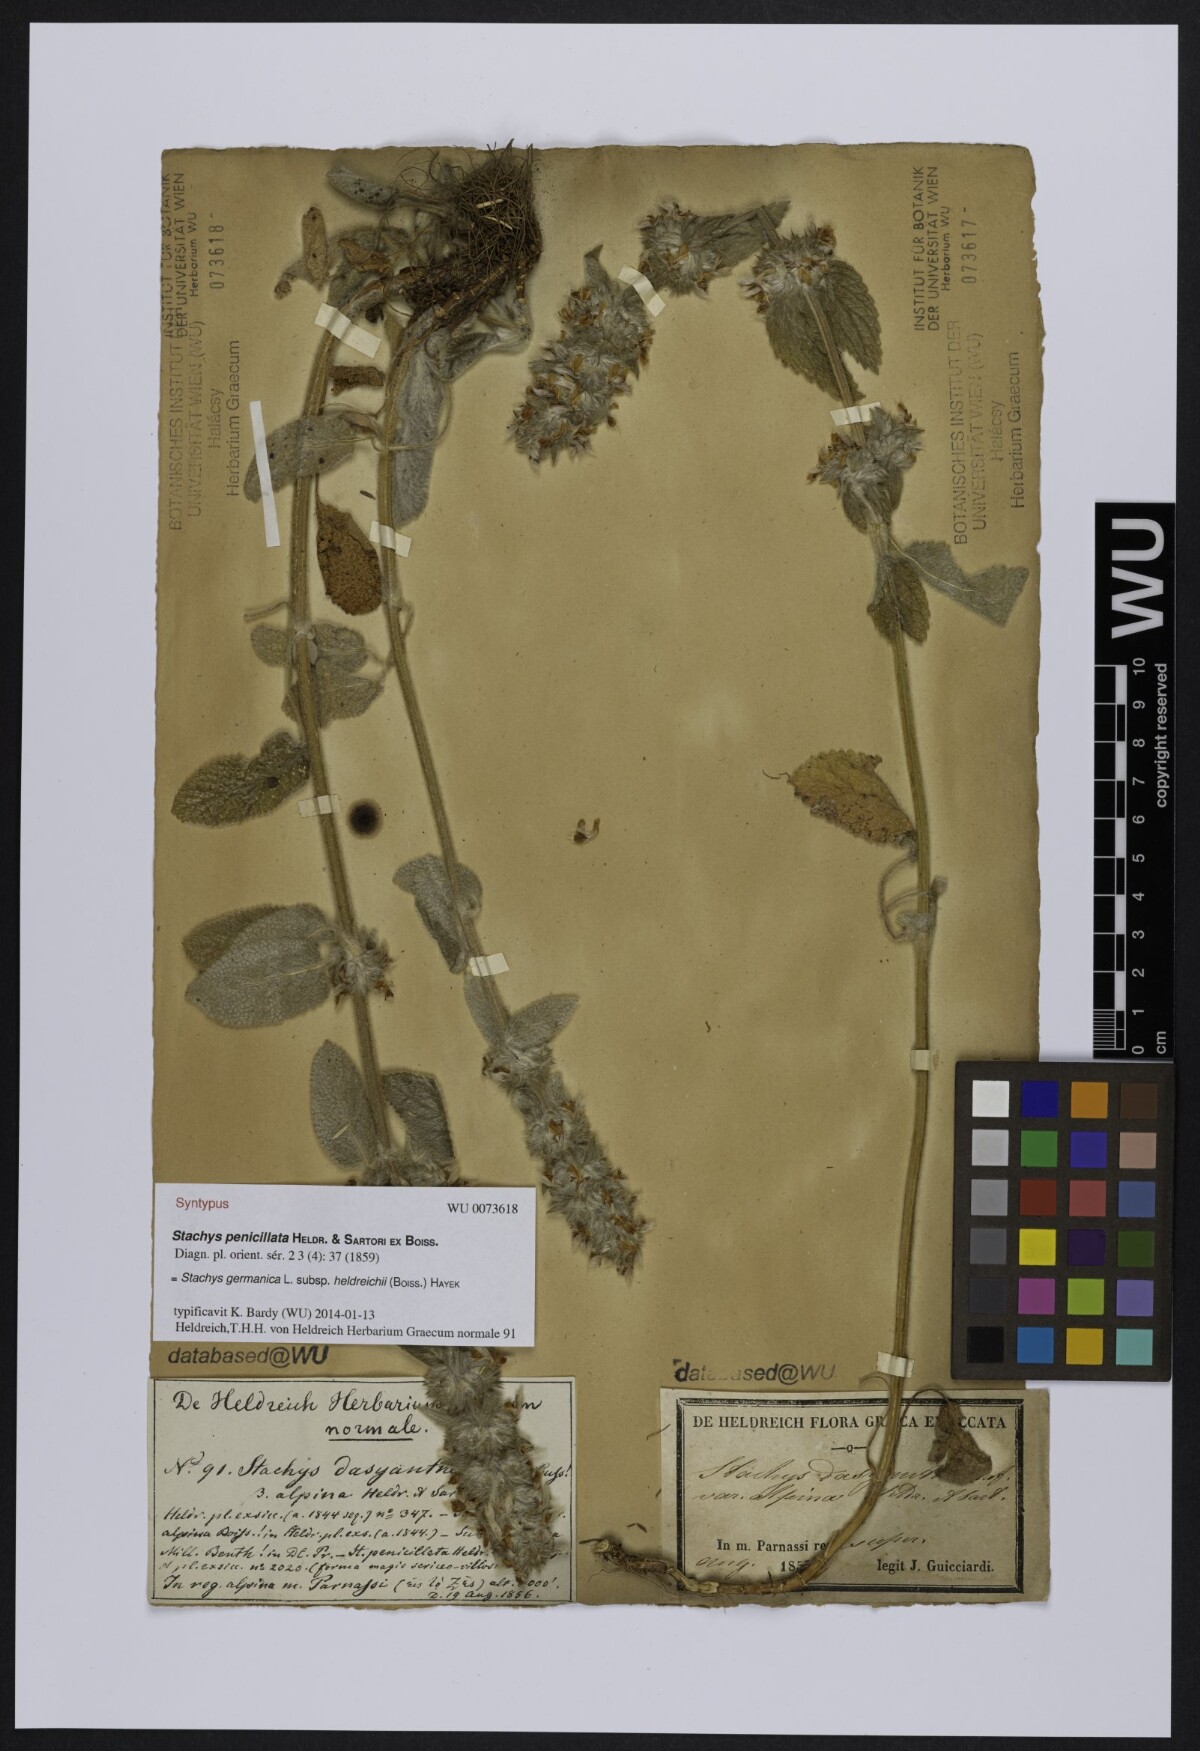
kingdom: Plantae
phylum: Tracheophyta
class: Magnoliopsida
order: Lamiales
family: Lamiaceae
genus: Stachys
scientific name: Stachys germanica
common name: Downy woundwort
